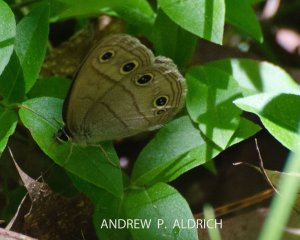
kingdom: Animalia
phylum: Arthropoda
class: Insecta
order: Lepidoptera
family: Nymphalidae
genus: Euptychia
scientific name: Euptychia cymela
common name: Little Wood Satyr
